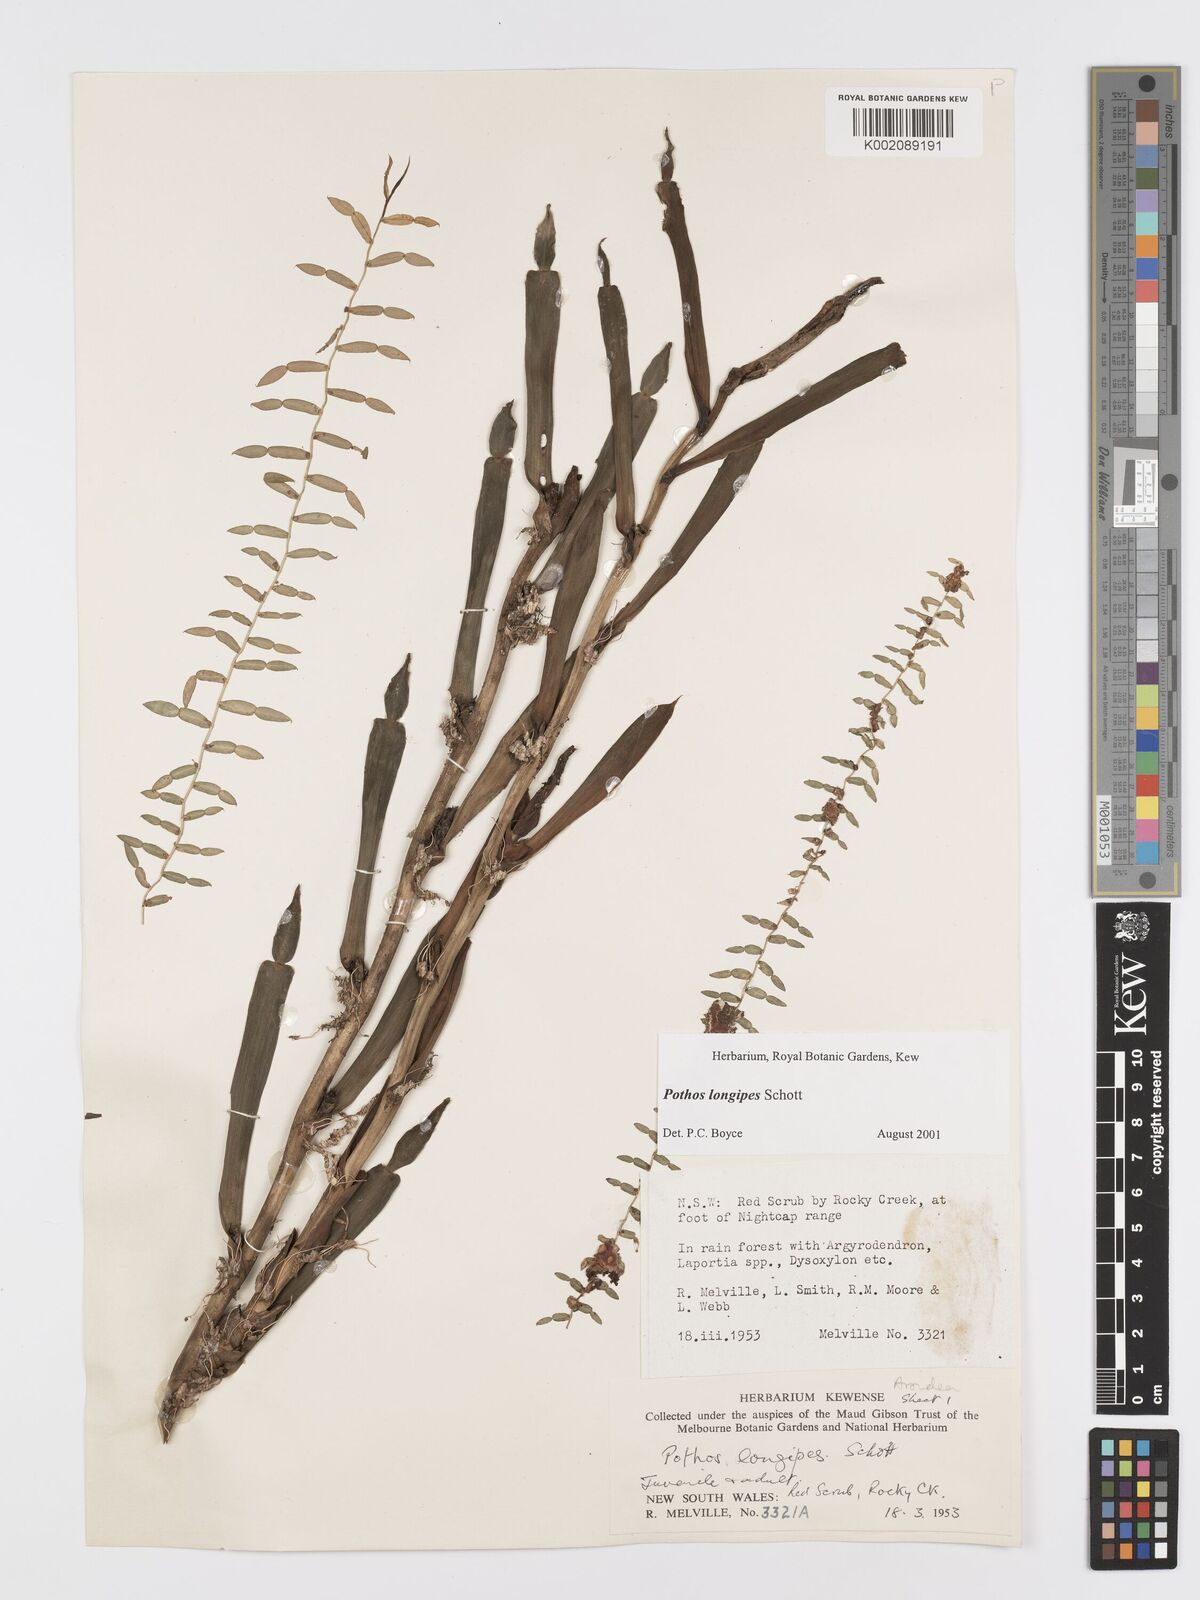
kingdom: Plantae
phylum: Tracheophyta
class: Liliopsida
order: Alismatales
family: Araceae
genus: Pothos
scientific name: Pothos longipes
